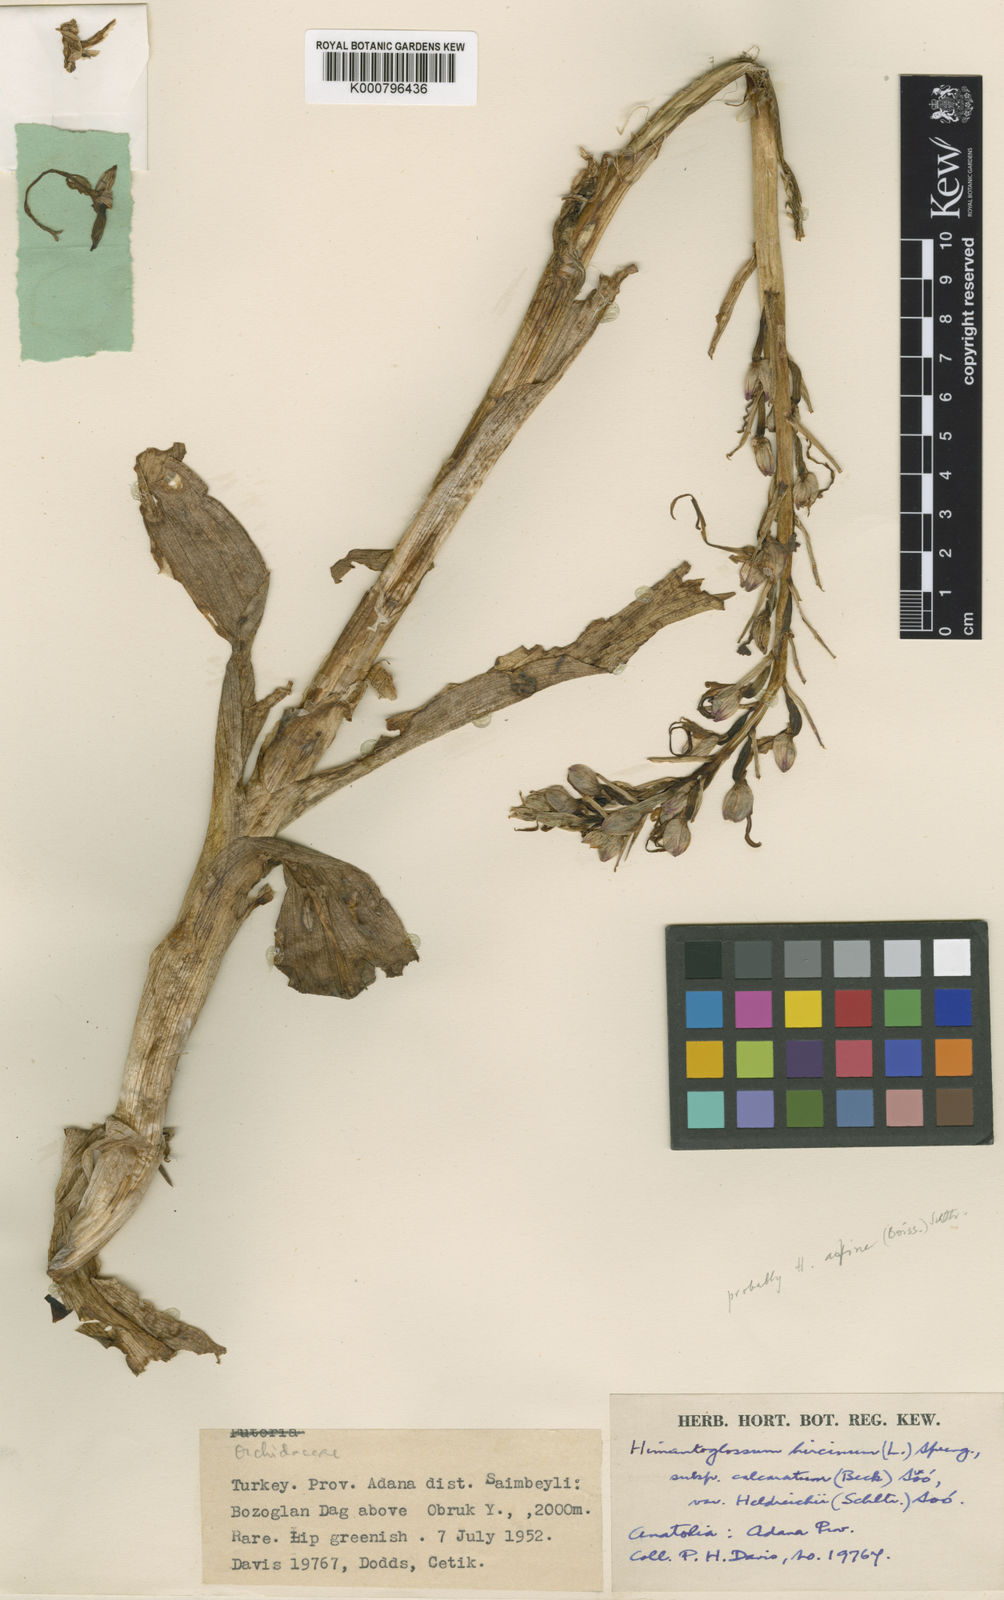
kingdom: Plantae
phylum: Tracheophyta
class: Liliopsida
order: Asparagales
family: Orchidaceae
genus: Himantoglossum
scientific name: Himantoglossum caprinum
